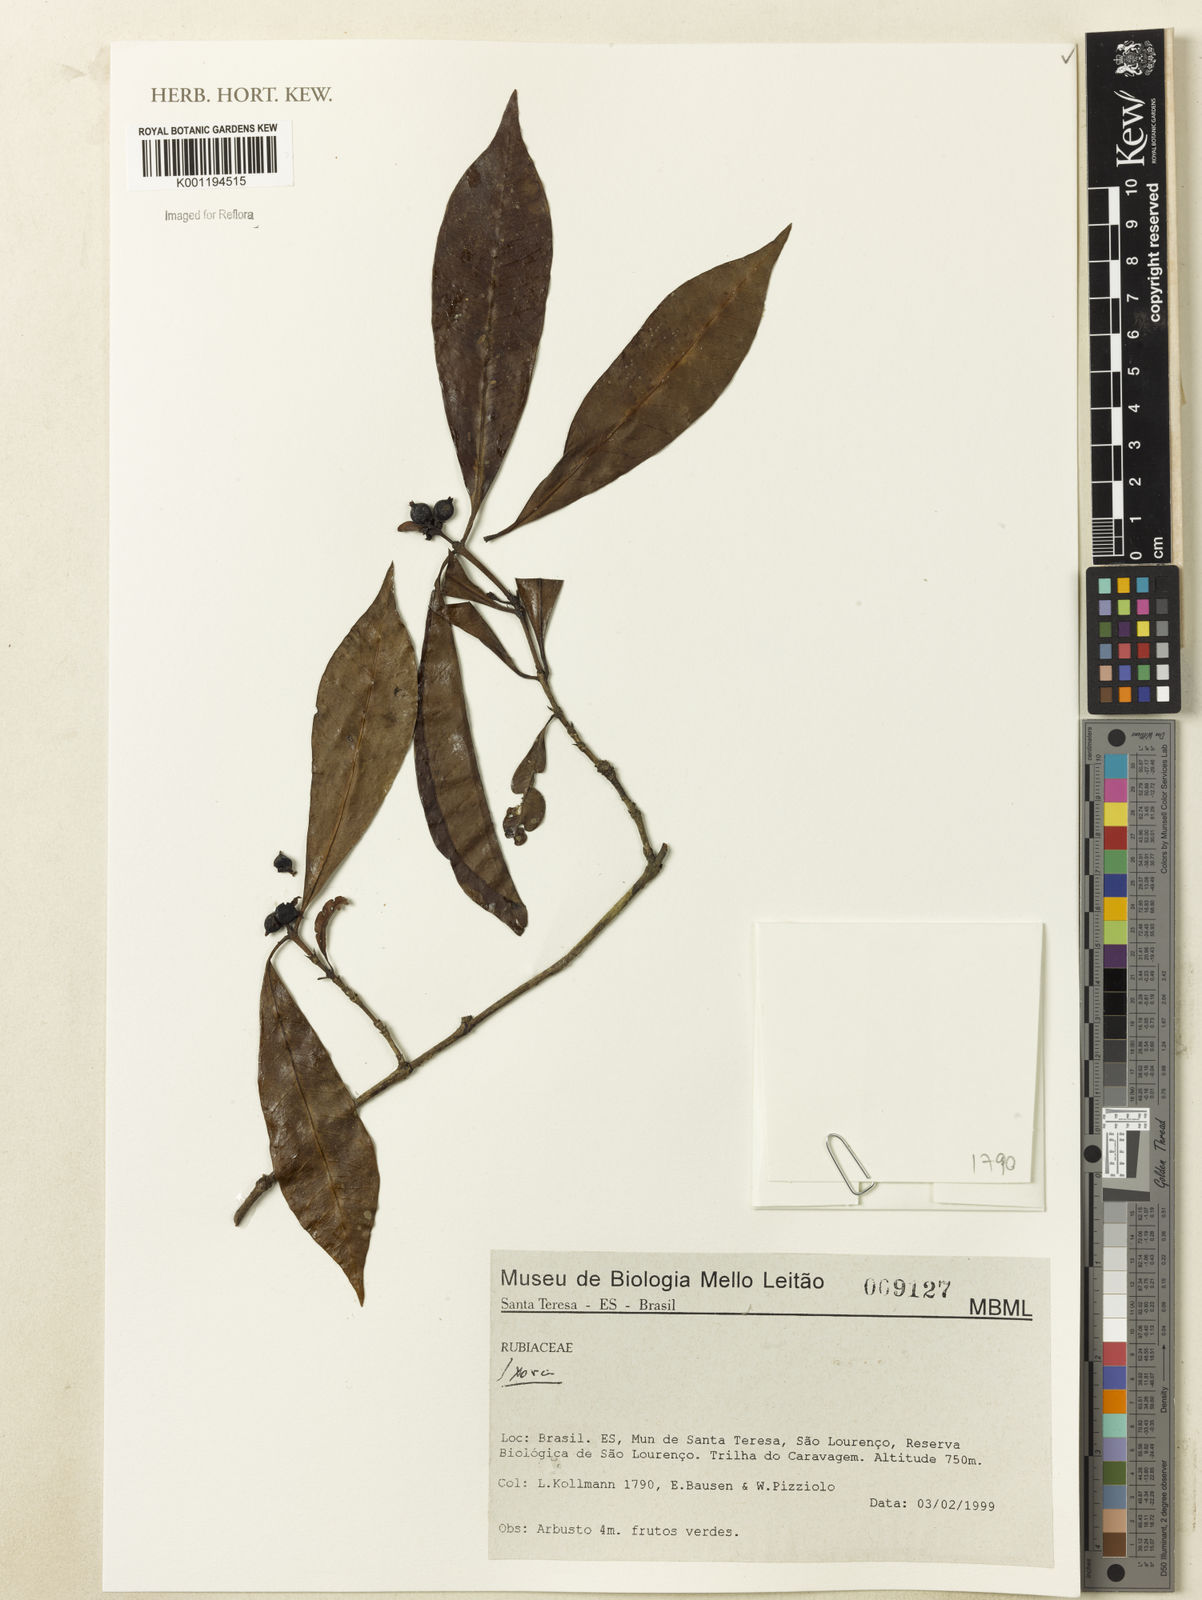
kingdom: Plantae
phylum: Tracheophyta
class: Magnoliopsida
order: Gentianales
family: Rubiaceae
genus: Ixora
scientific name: Ixora
